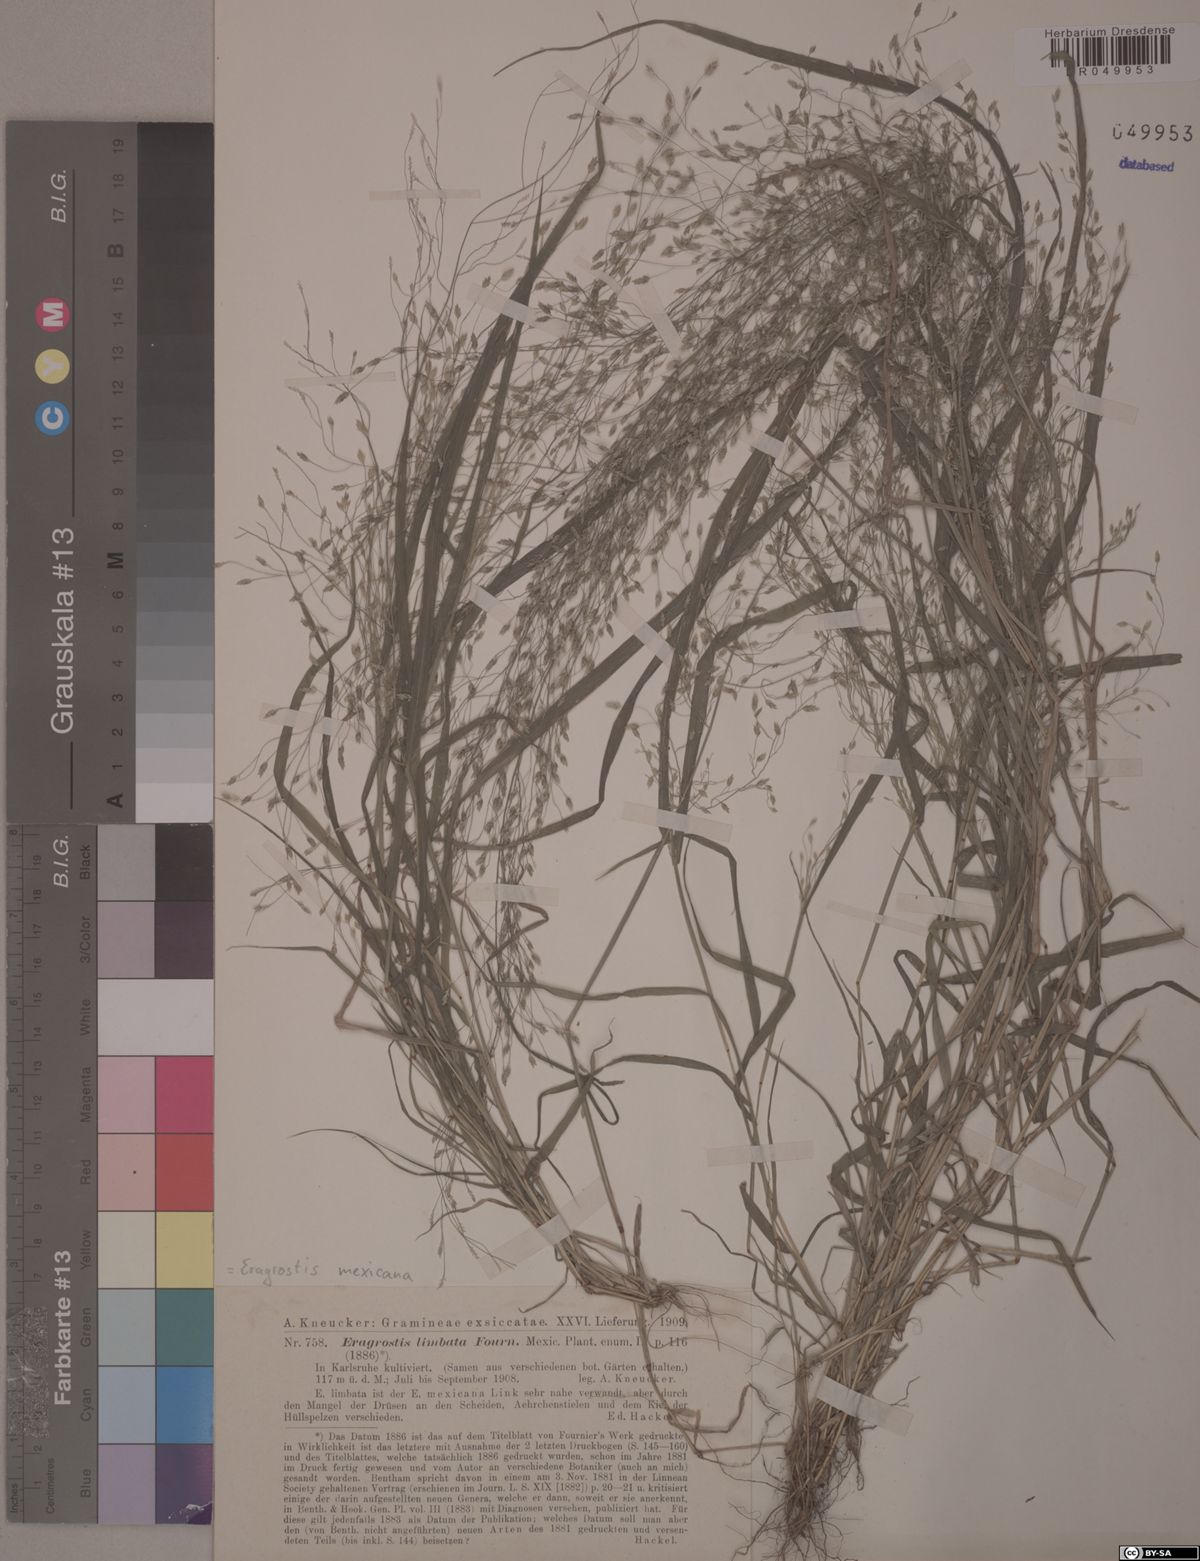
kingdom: Plantae
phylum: Tracheophyta
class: Liliopsida
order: Poales
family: Poaceae
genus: Eragrostis
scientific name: Eragrostis mexicana
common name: Mexican love grass
